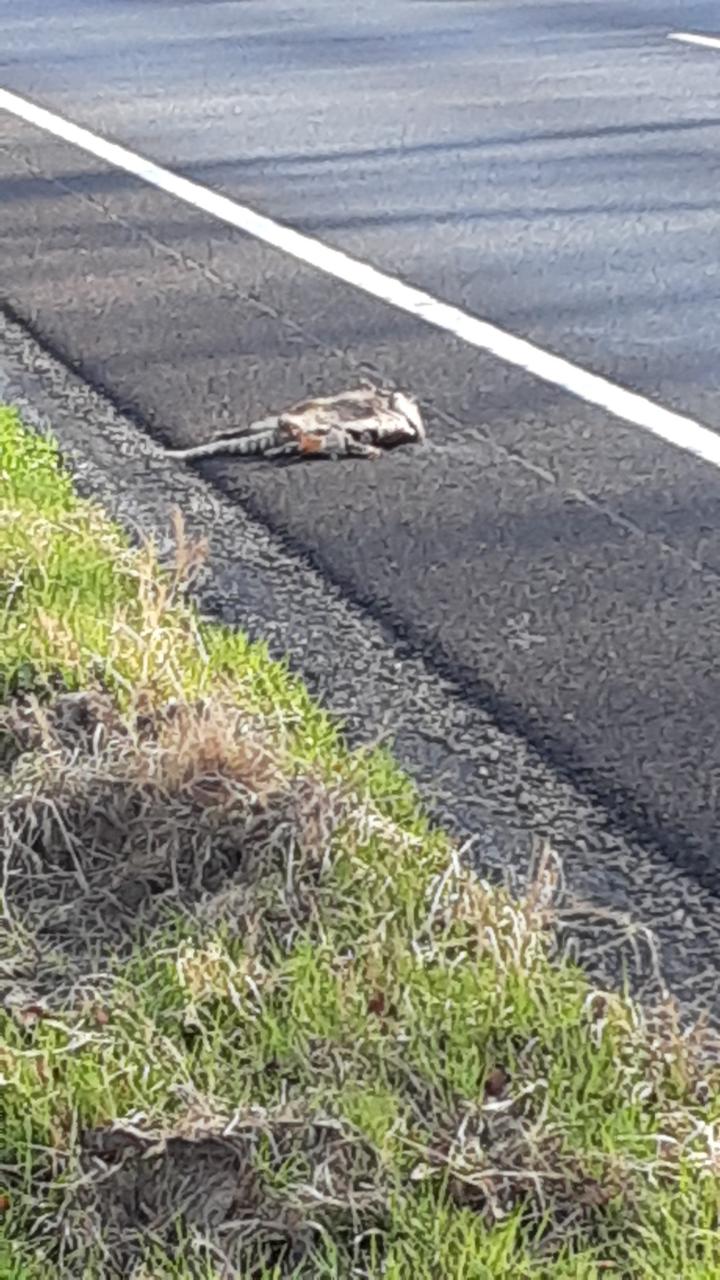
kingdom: Animalia
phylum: Chordata
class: Mammalia
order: Cingulata
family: Dasypodidae
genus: Dasypus
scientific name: Dasypus novemcinctus
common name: Nine-banded armadillo
